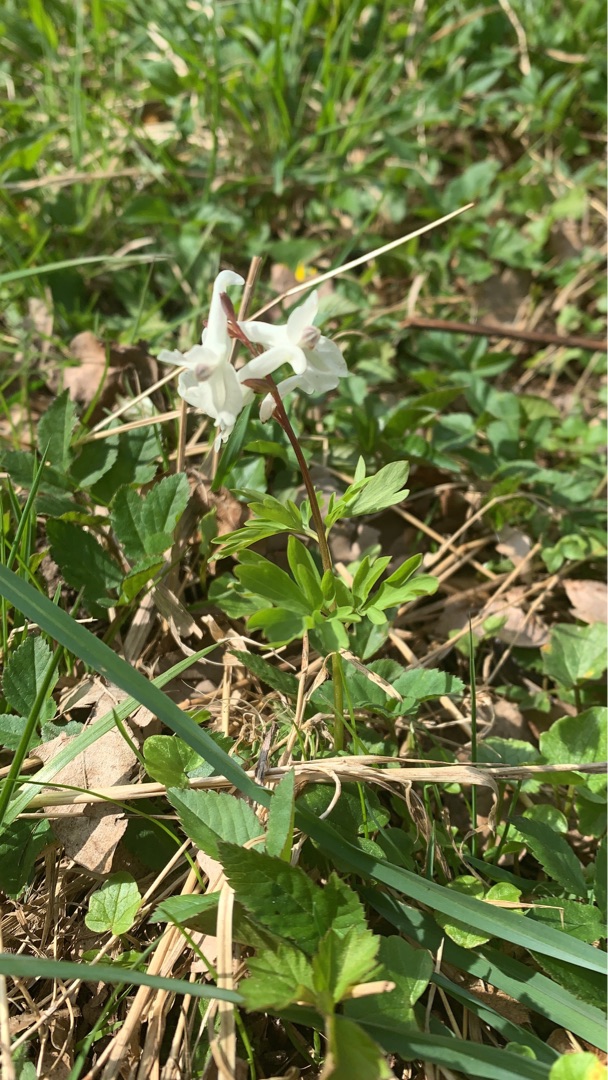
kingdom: Plantae
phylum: Tracheophyta
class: Magnoliopsida
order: Ranunculales
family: Papaveraceae
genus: Corydalis
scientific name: Corydalis cava
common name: Hulrodet lærkespore
